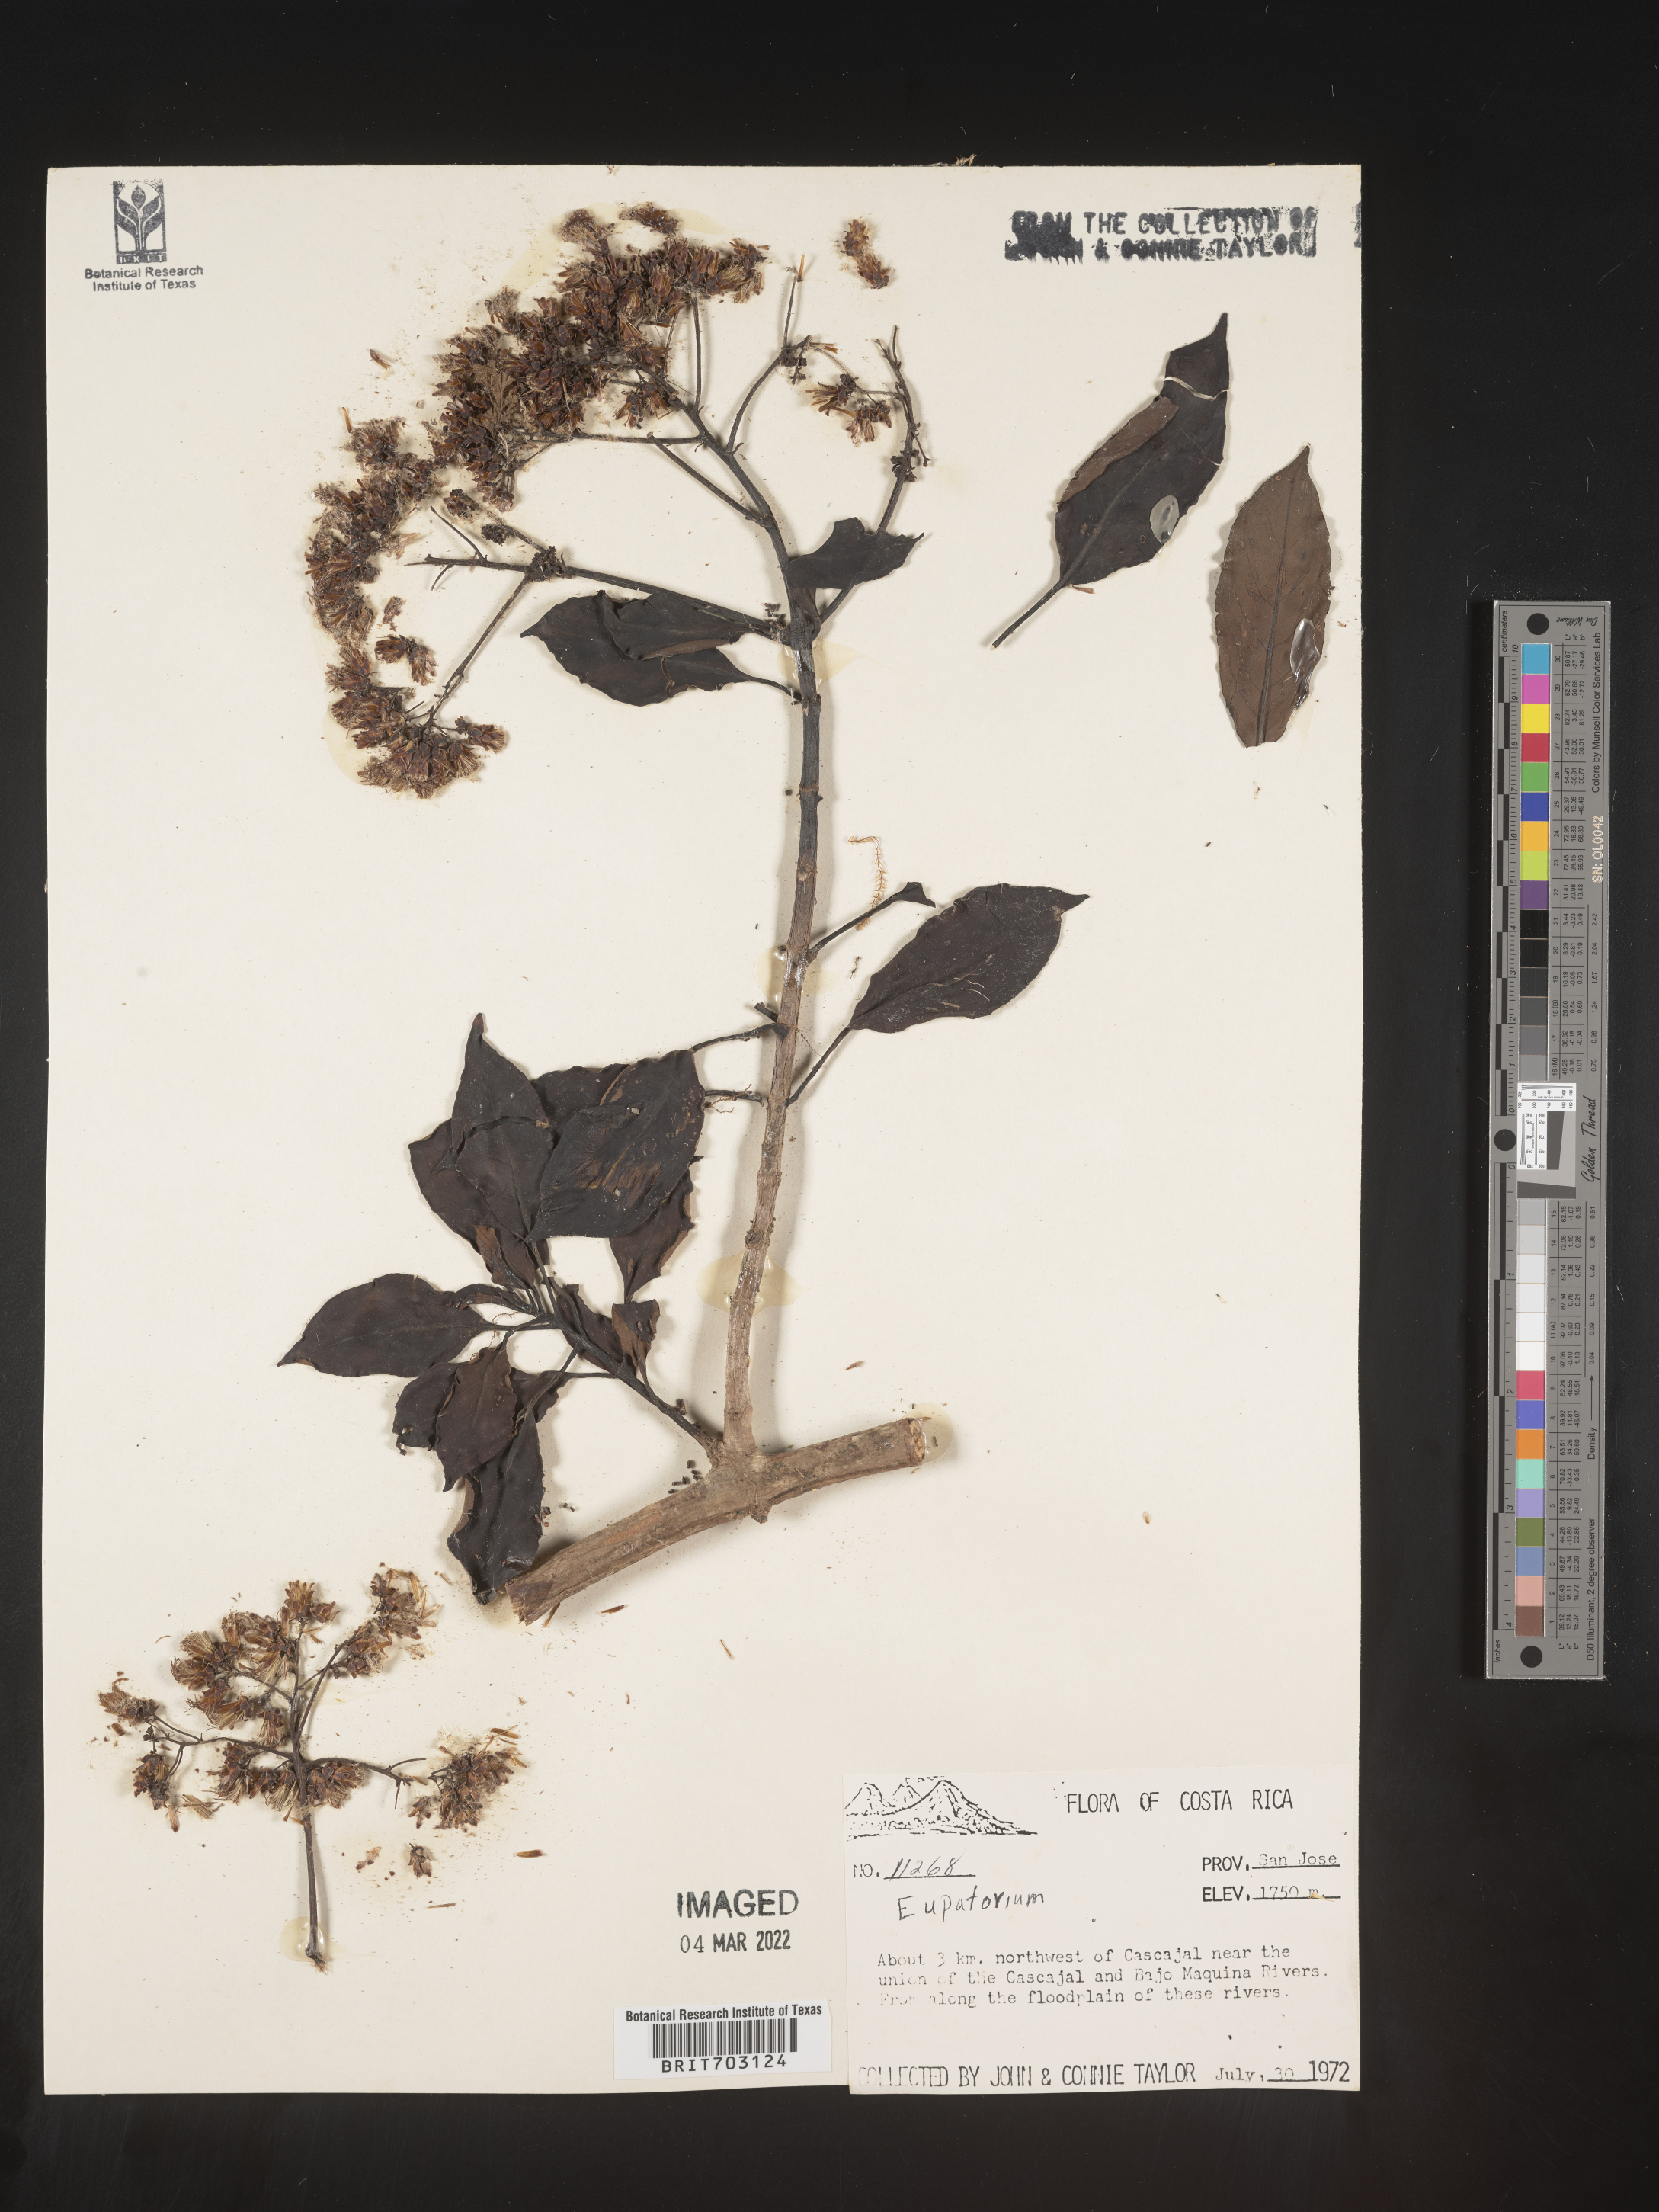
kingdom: Plantae
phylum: Tracheophyta
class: Magnoliopsida
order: Asterales
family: Asteraceae
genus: Eupatorium
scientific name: Eupatorium
